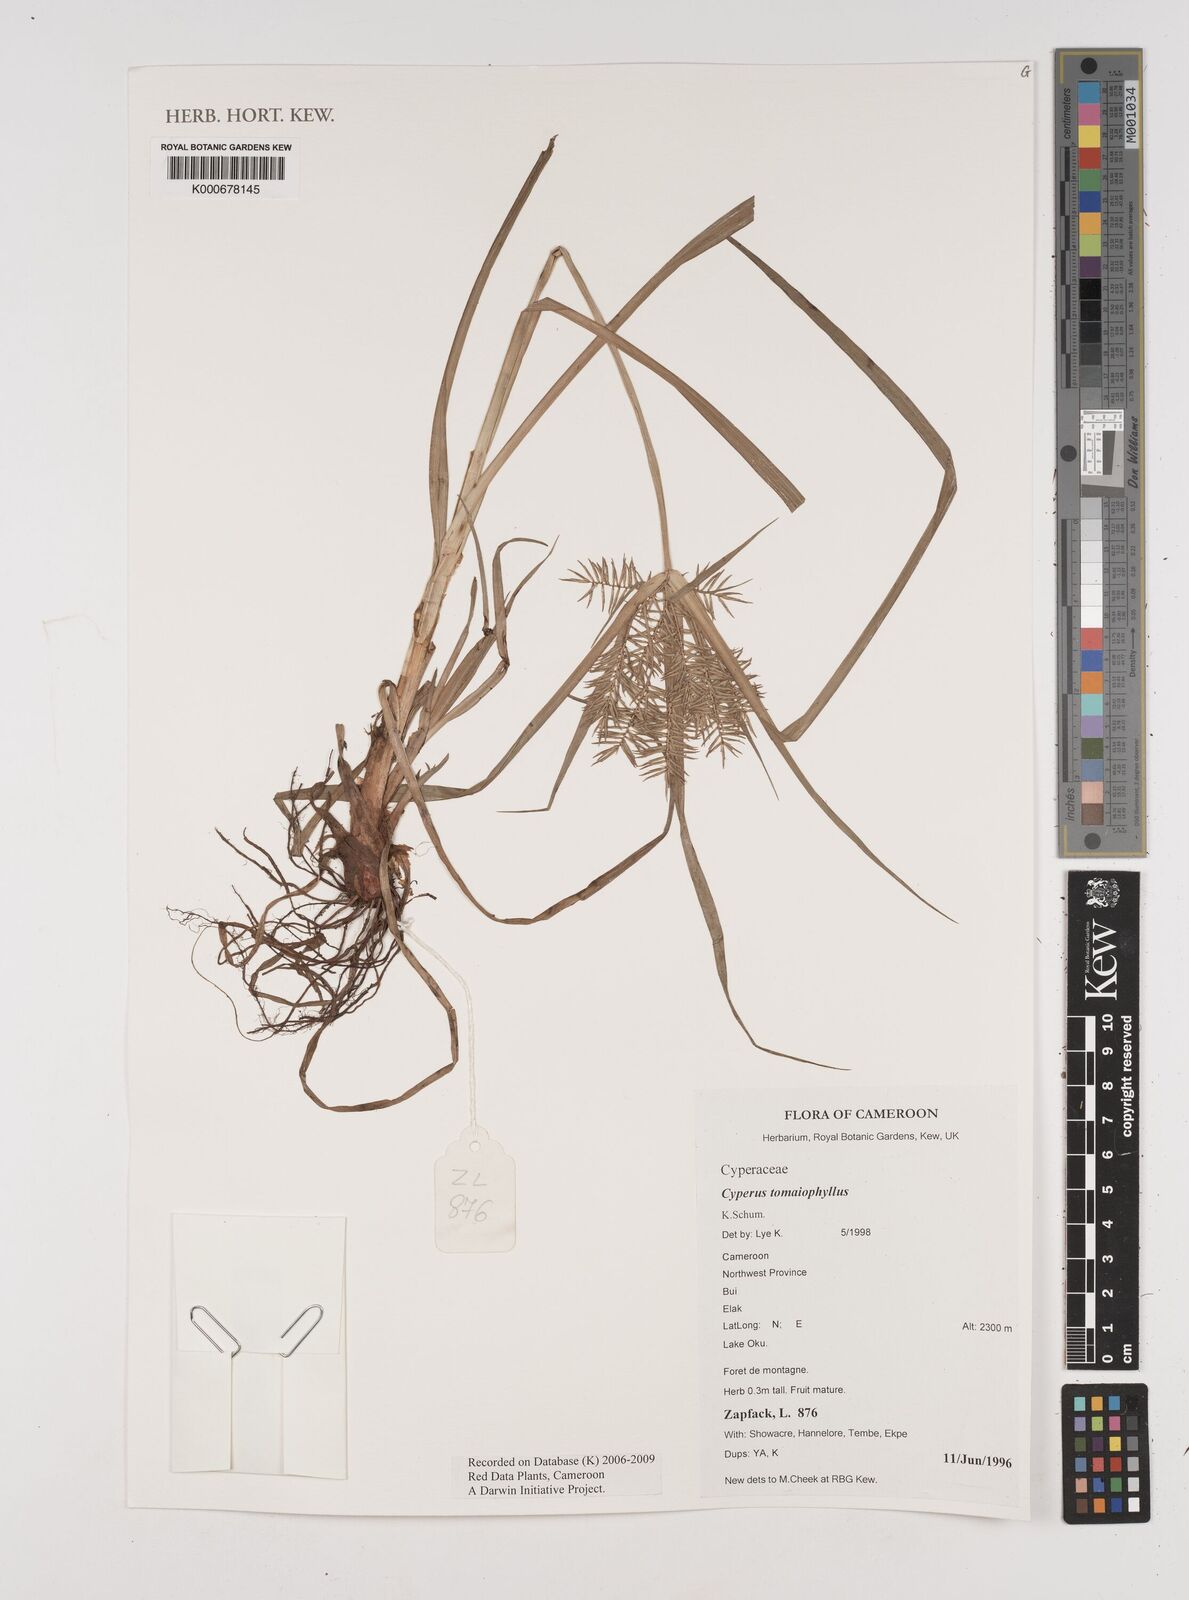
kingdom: Plantae
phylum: Tracheophyta
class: Liliopsida
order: Poales
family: Cyperaceae
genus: Cyperus
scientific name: Cyperus tomaiophyllus
